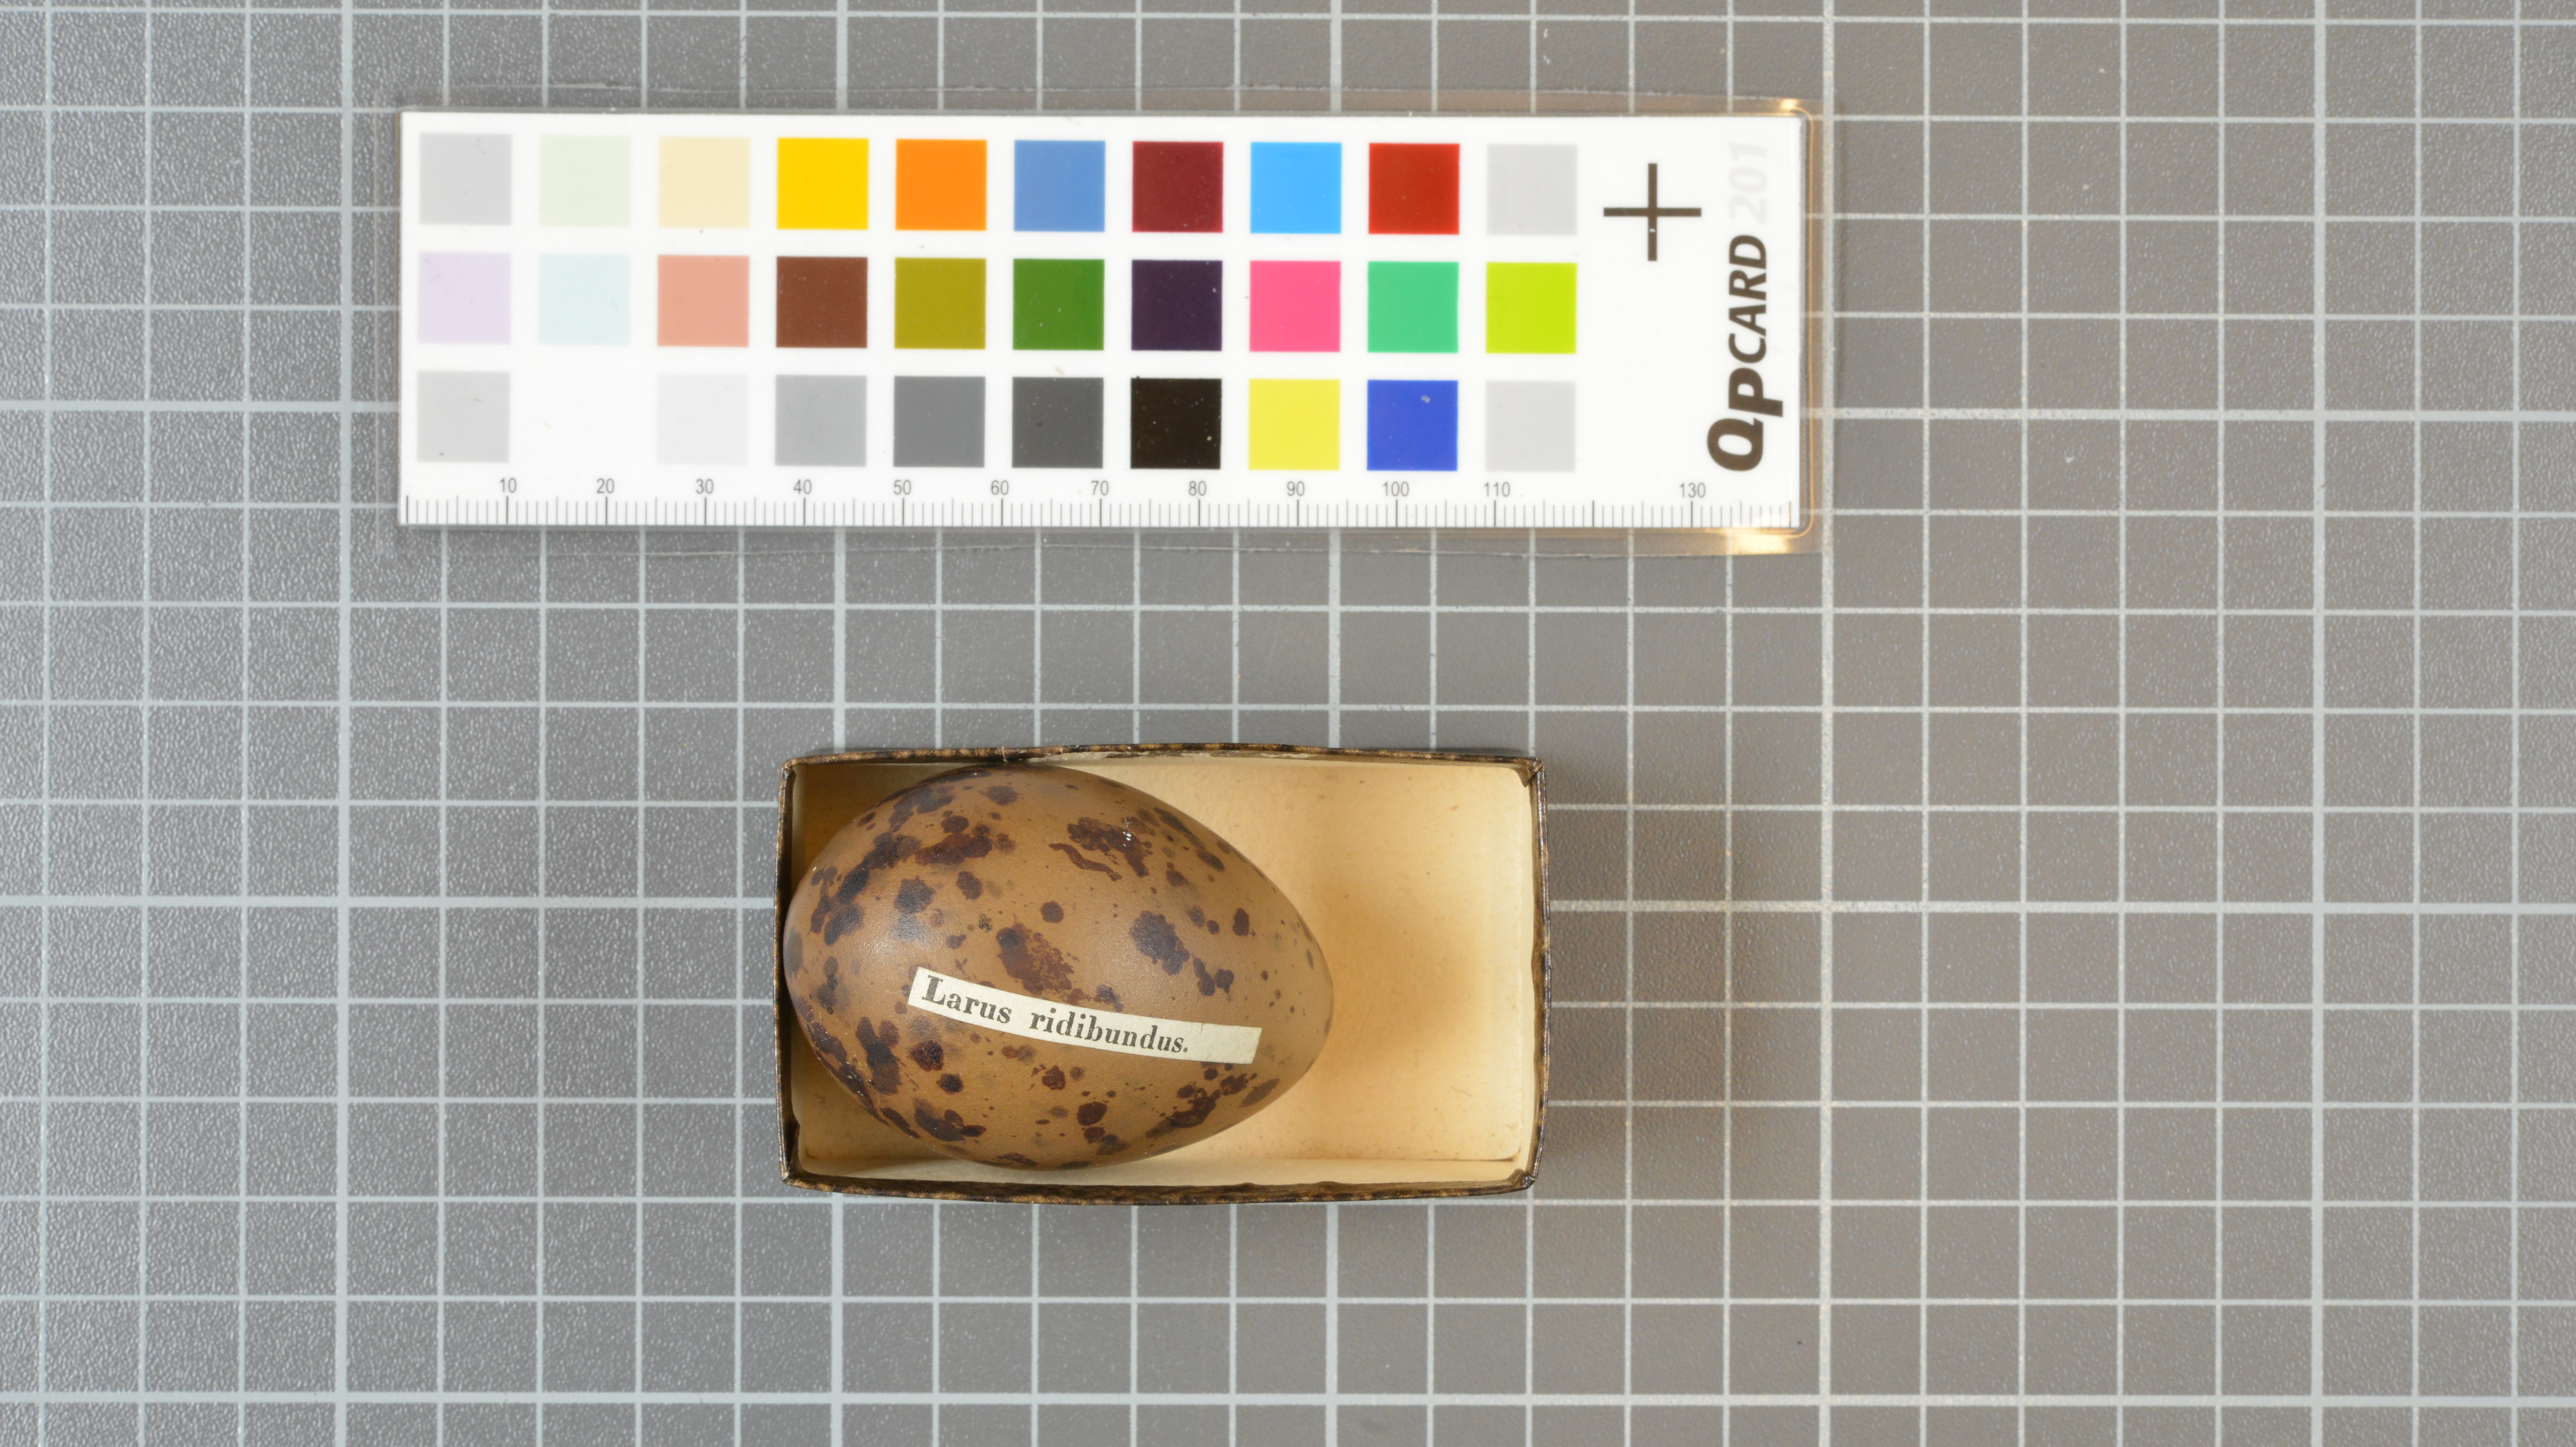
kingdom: Animalia
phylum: Chordata
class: Aves
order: Charadriiformes
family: Laridae
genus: Chroicocephalus
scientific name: Chroicocephalus ridibundus
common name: Black-headed gull
